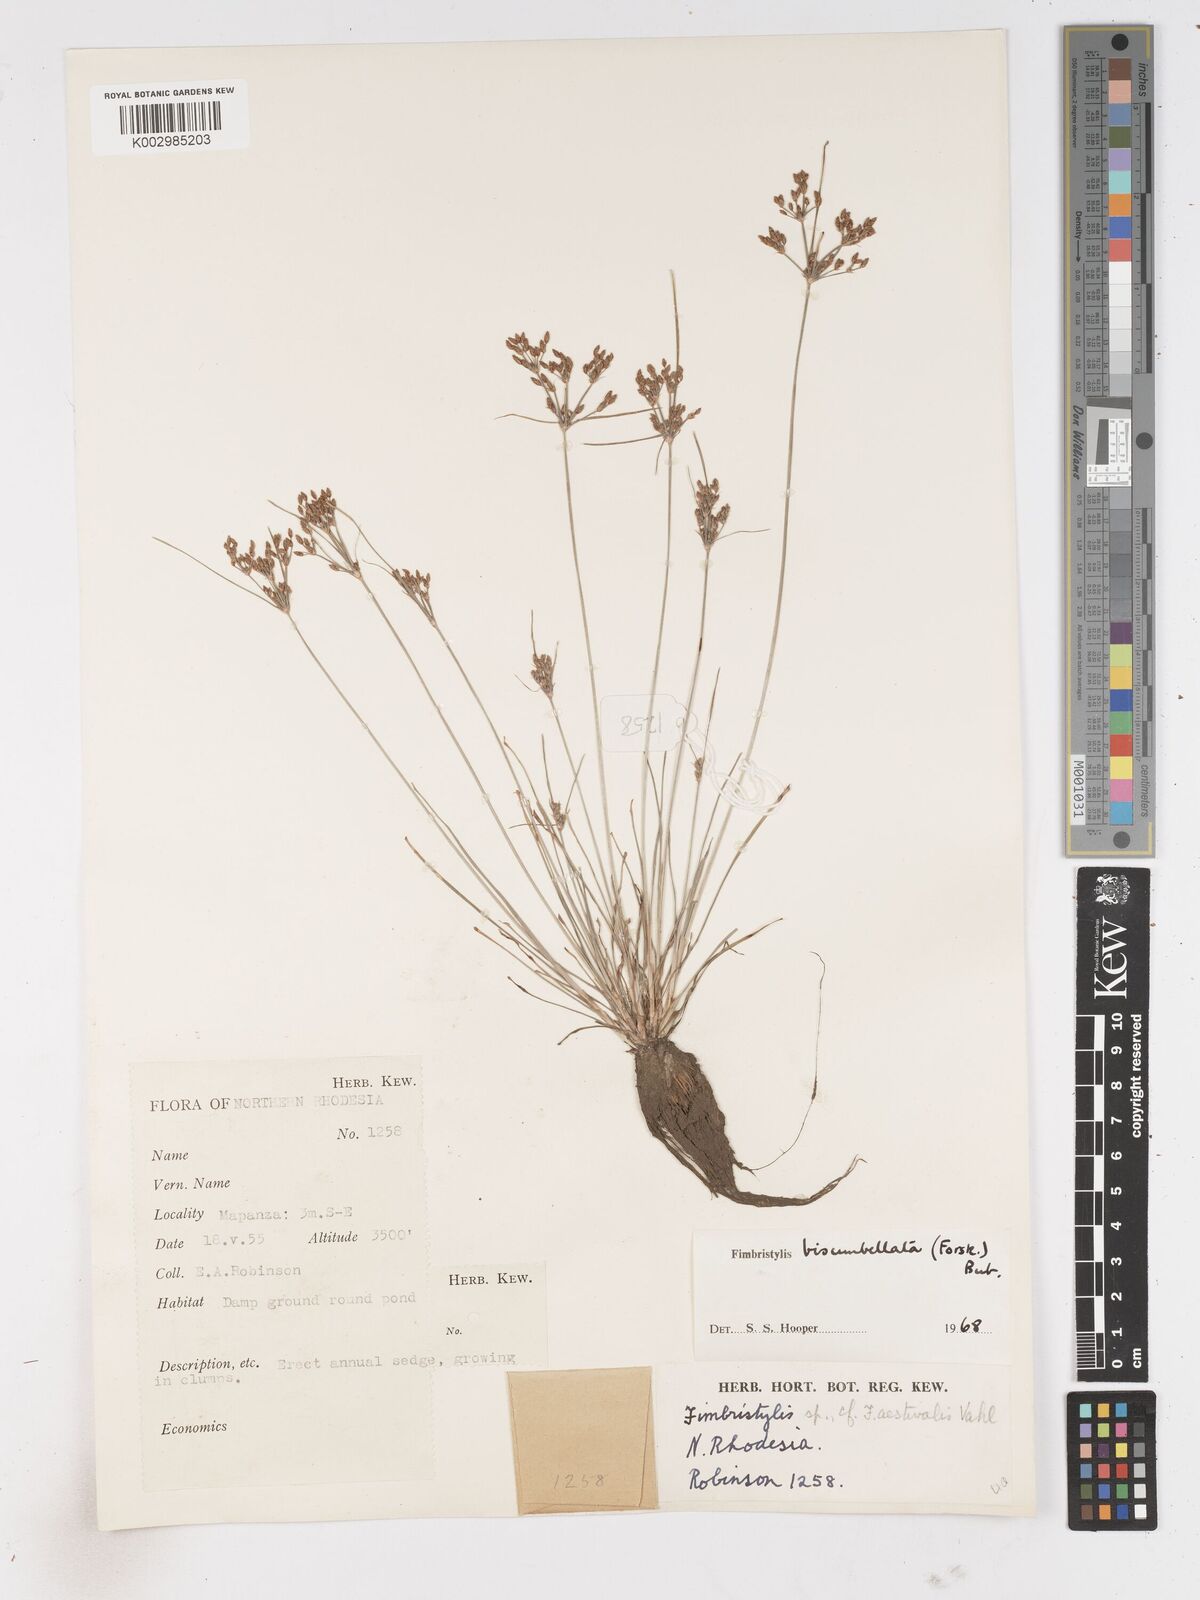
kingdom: Plantae
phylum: Tracheophyta
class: Liliopsida
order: Poales
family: Cyperaceae
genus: Fimbristylis
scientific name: Fimbristylis bisumbellata
